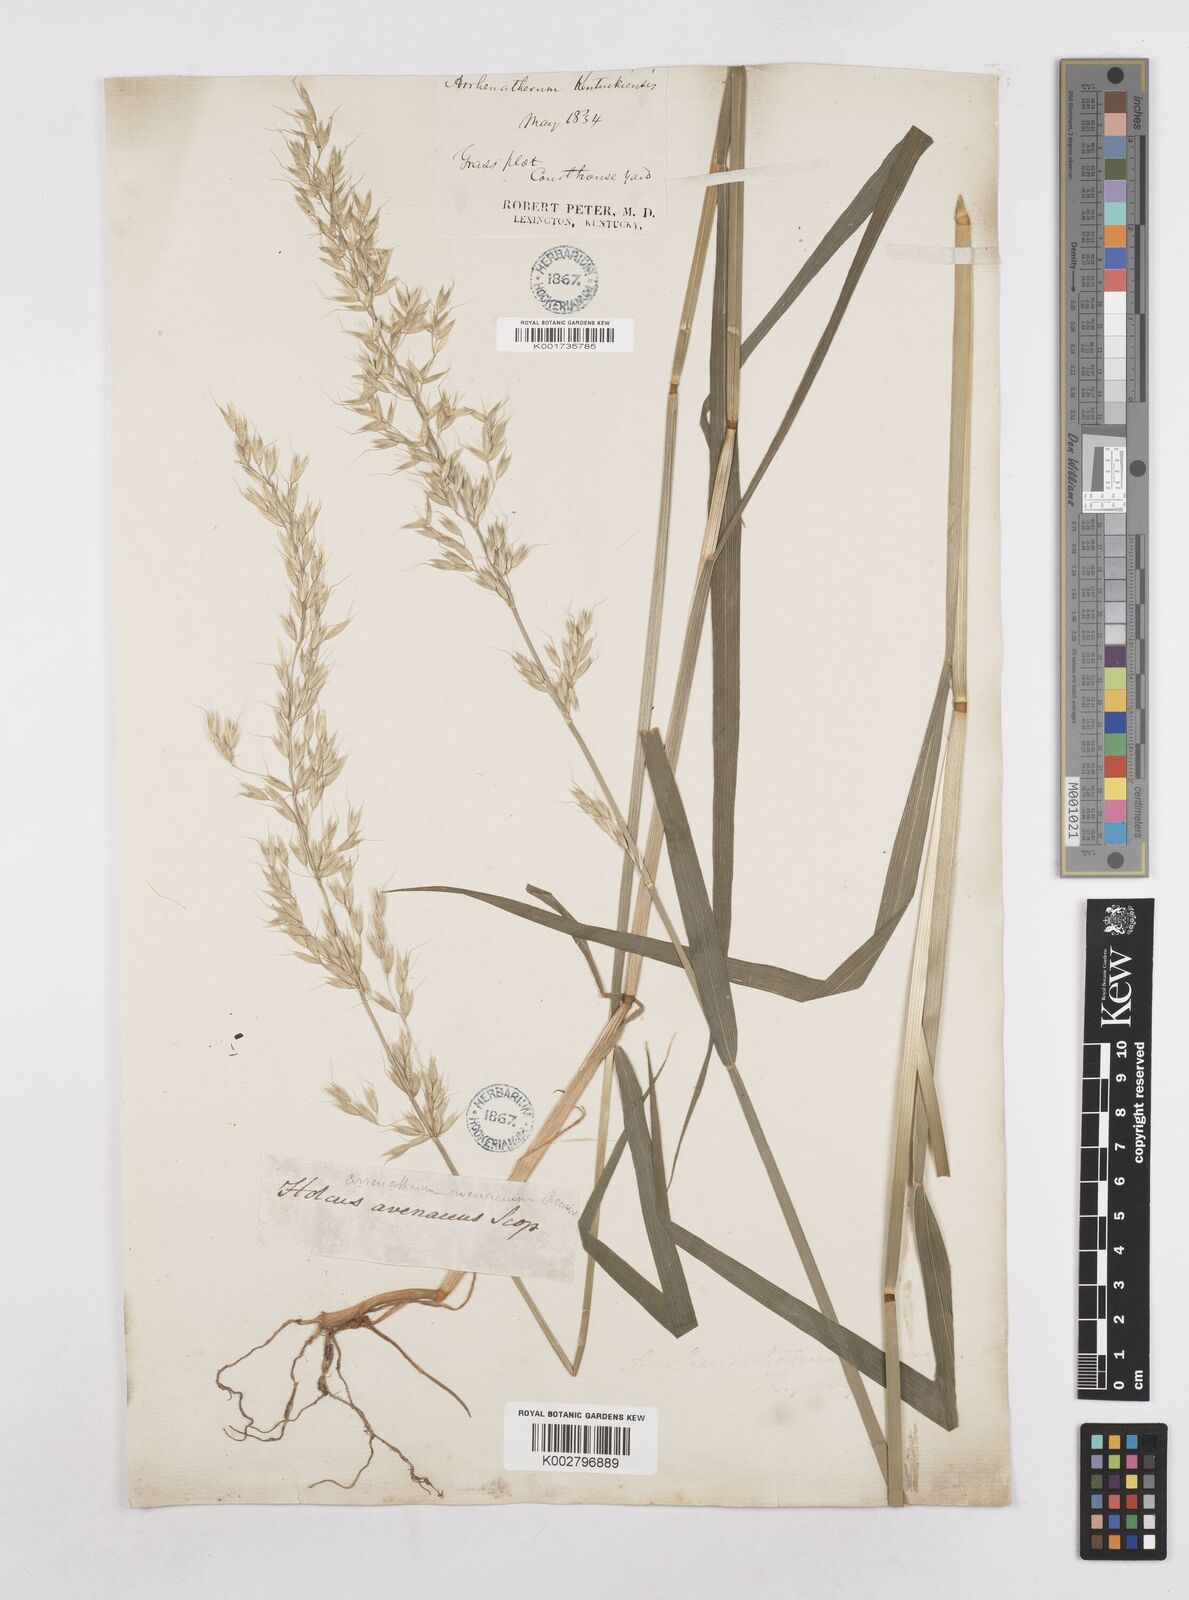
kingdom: Plantae
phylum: Tracheophyta
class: Liliopsida
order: Poales
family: Poaceae
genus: Arrhenatherum
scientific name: Arrhenatherum elatius
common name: Tall oatgrass
